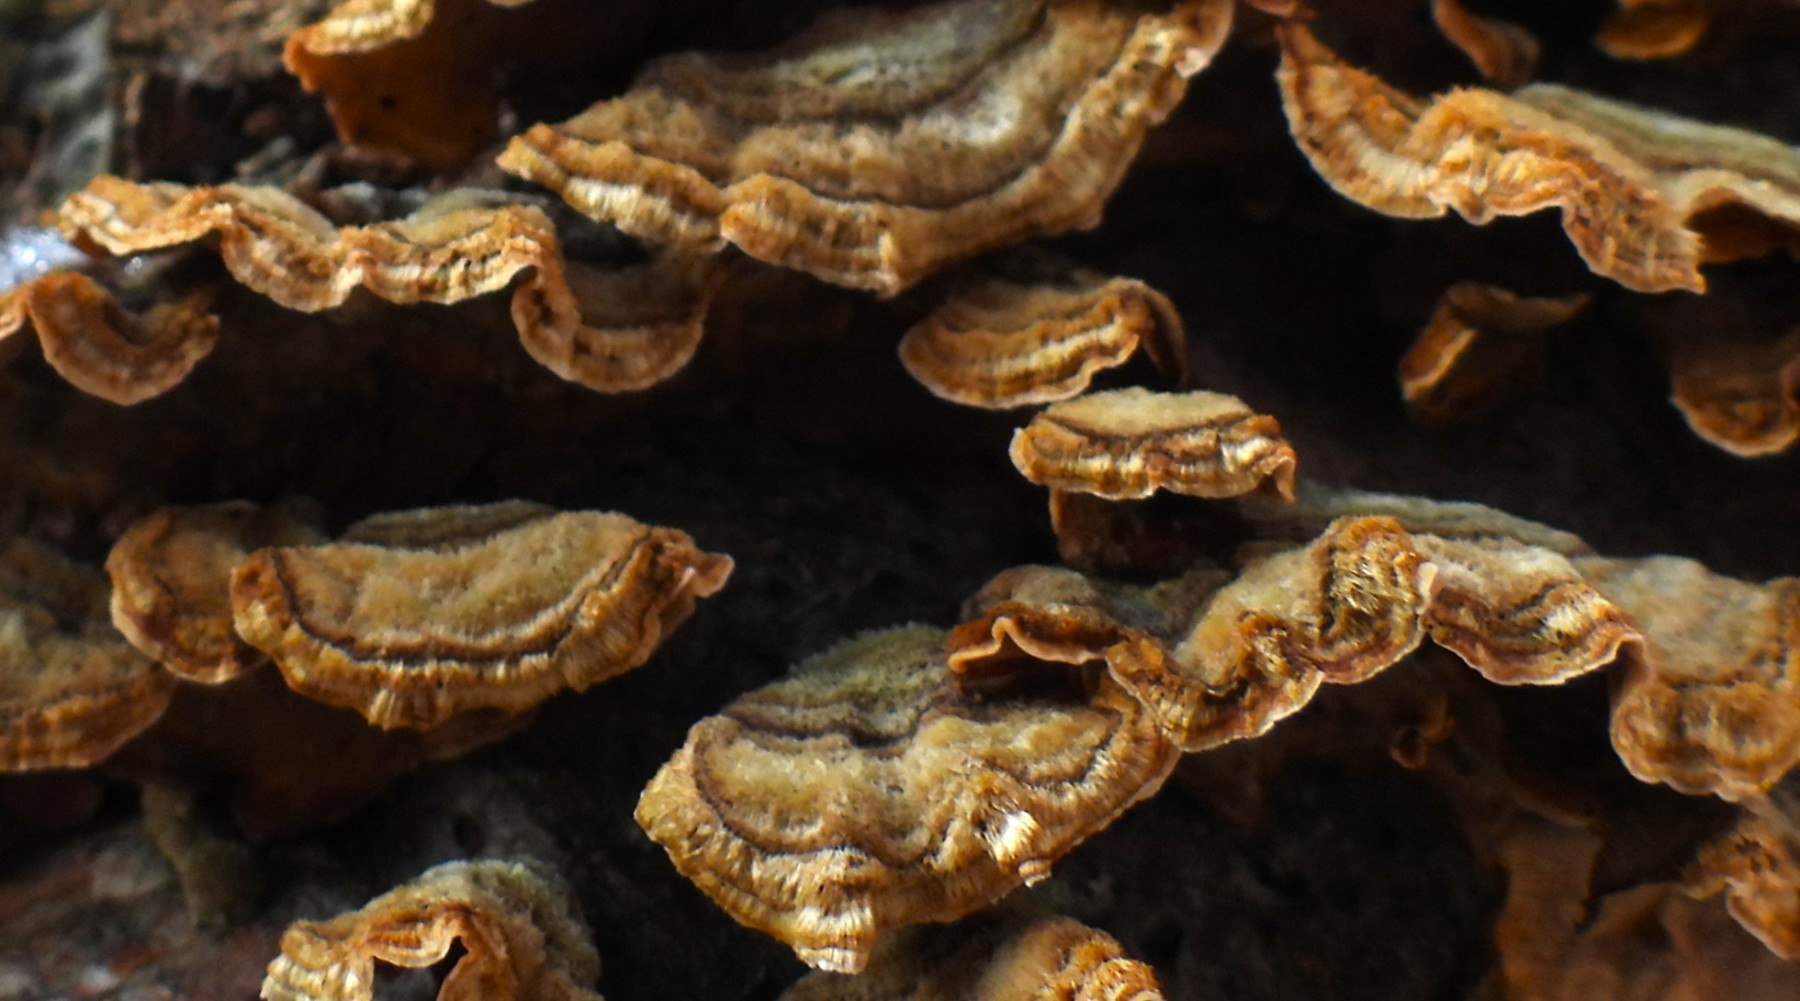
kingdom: Fungi
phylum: Basidiomycota
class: Agaricomycetes
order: Russulales
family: Stereaceae
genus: Stereum
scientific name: Stereum hirsutum
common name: håret lædersvamp
